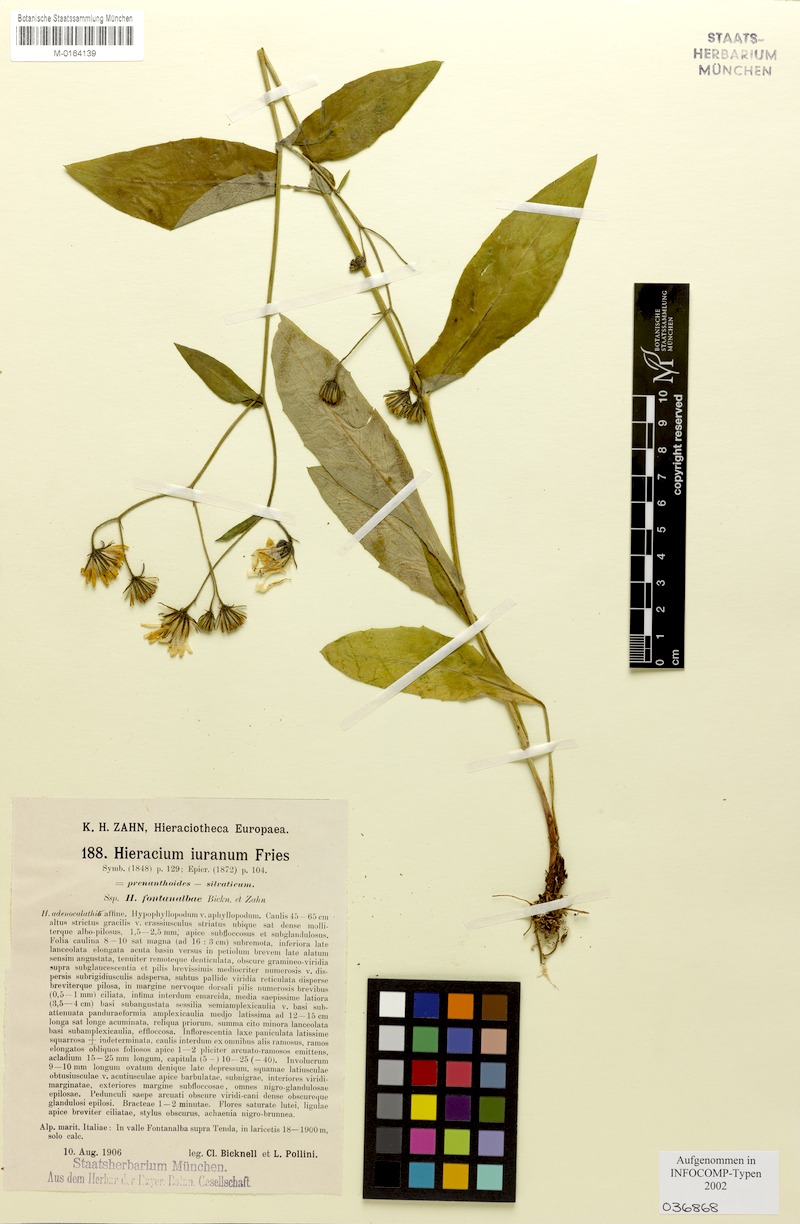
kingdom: Plantae
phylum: Tracheophyta
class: Magnoliopsida
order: Asterales
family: Asteraceae
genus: Hieracium
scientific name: Hieracium jurassicum
